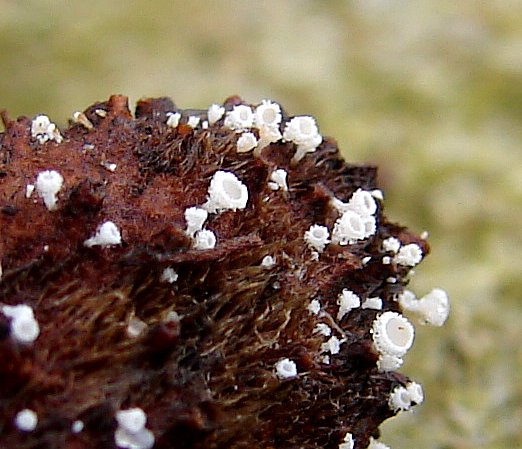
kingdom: Fungi
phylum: Ascomycota
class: Leotiomycetes
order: Helotiales
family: Lachnaceae
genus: Lachnum
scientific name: Lachnum virgineum
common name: jomfru-frynseskive
